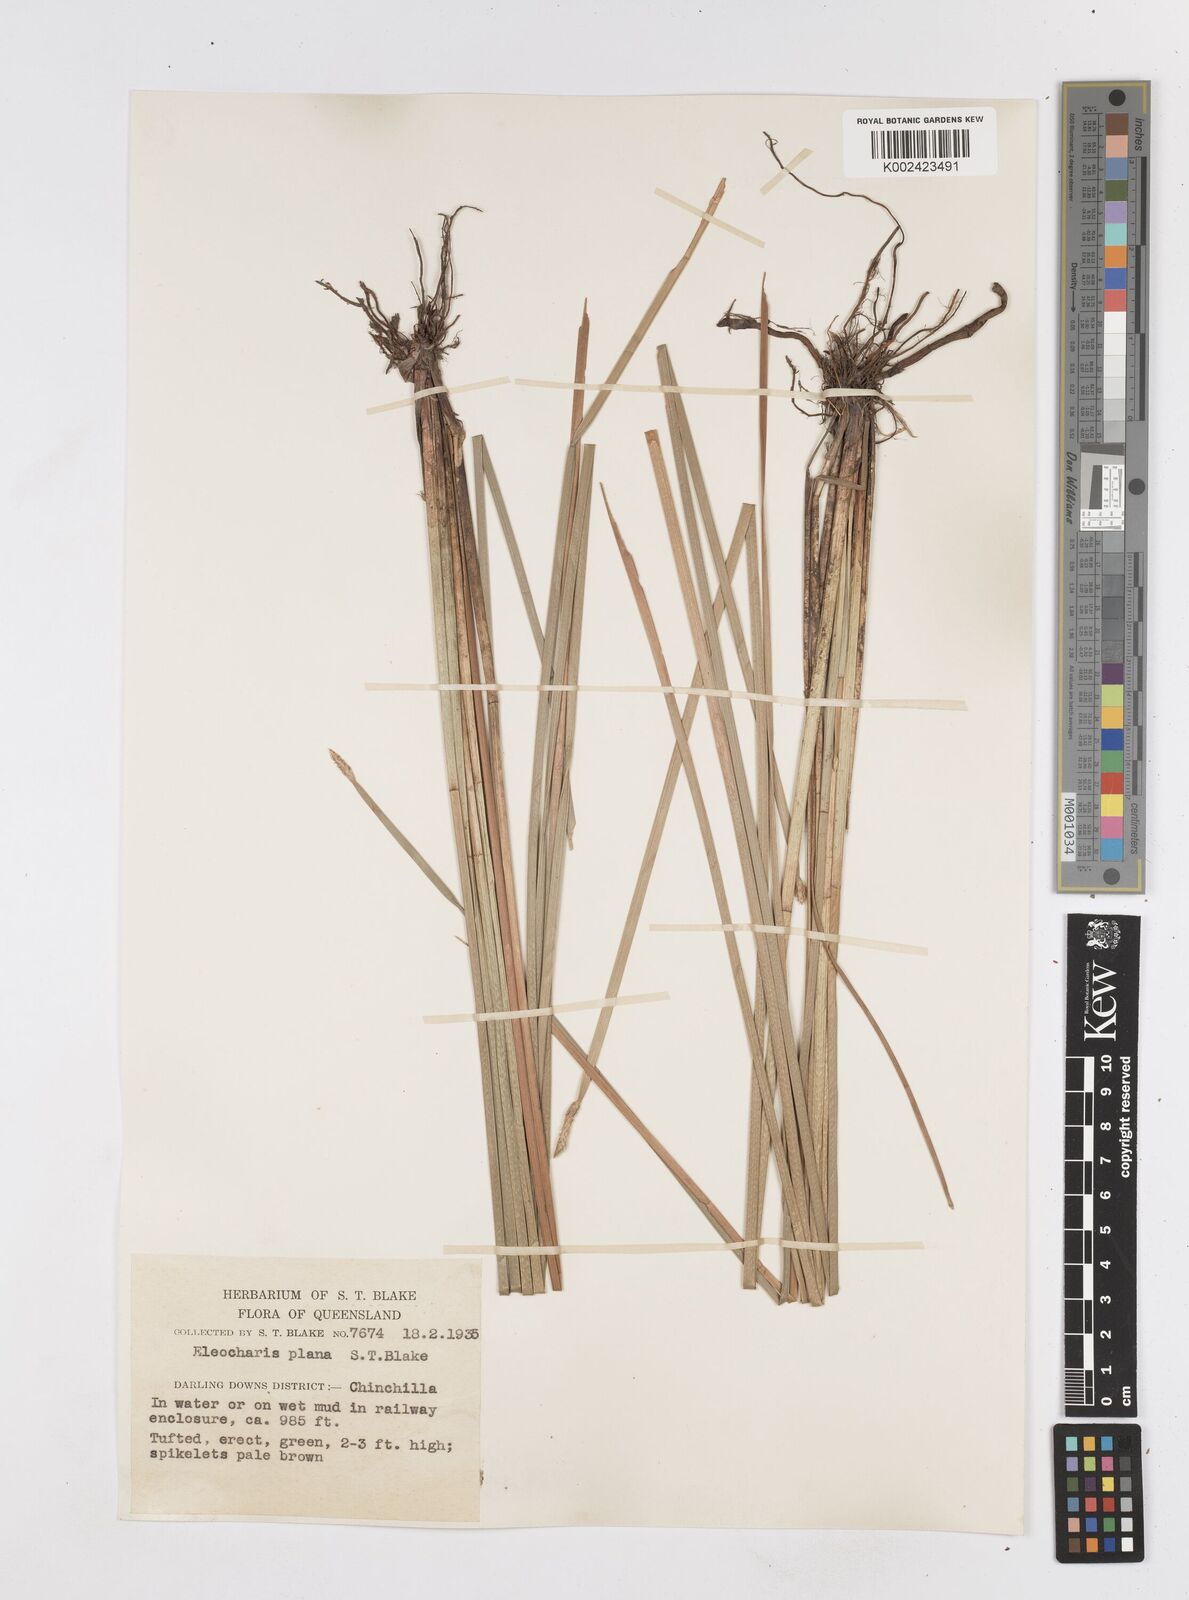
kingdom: Plantae
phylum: Tracheophyta
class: Liliopsida
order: Poales
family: Cyperaceae
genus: Eleocharis
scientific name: Eleocharis plana
